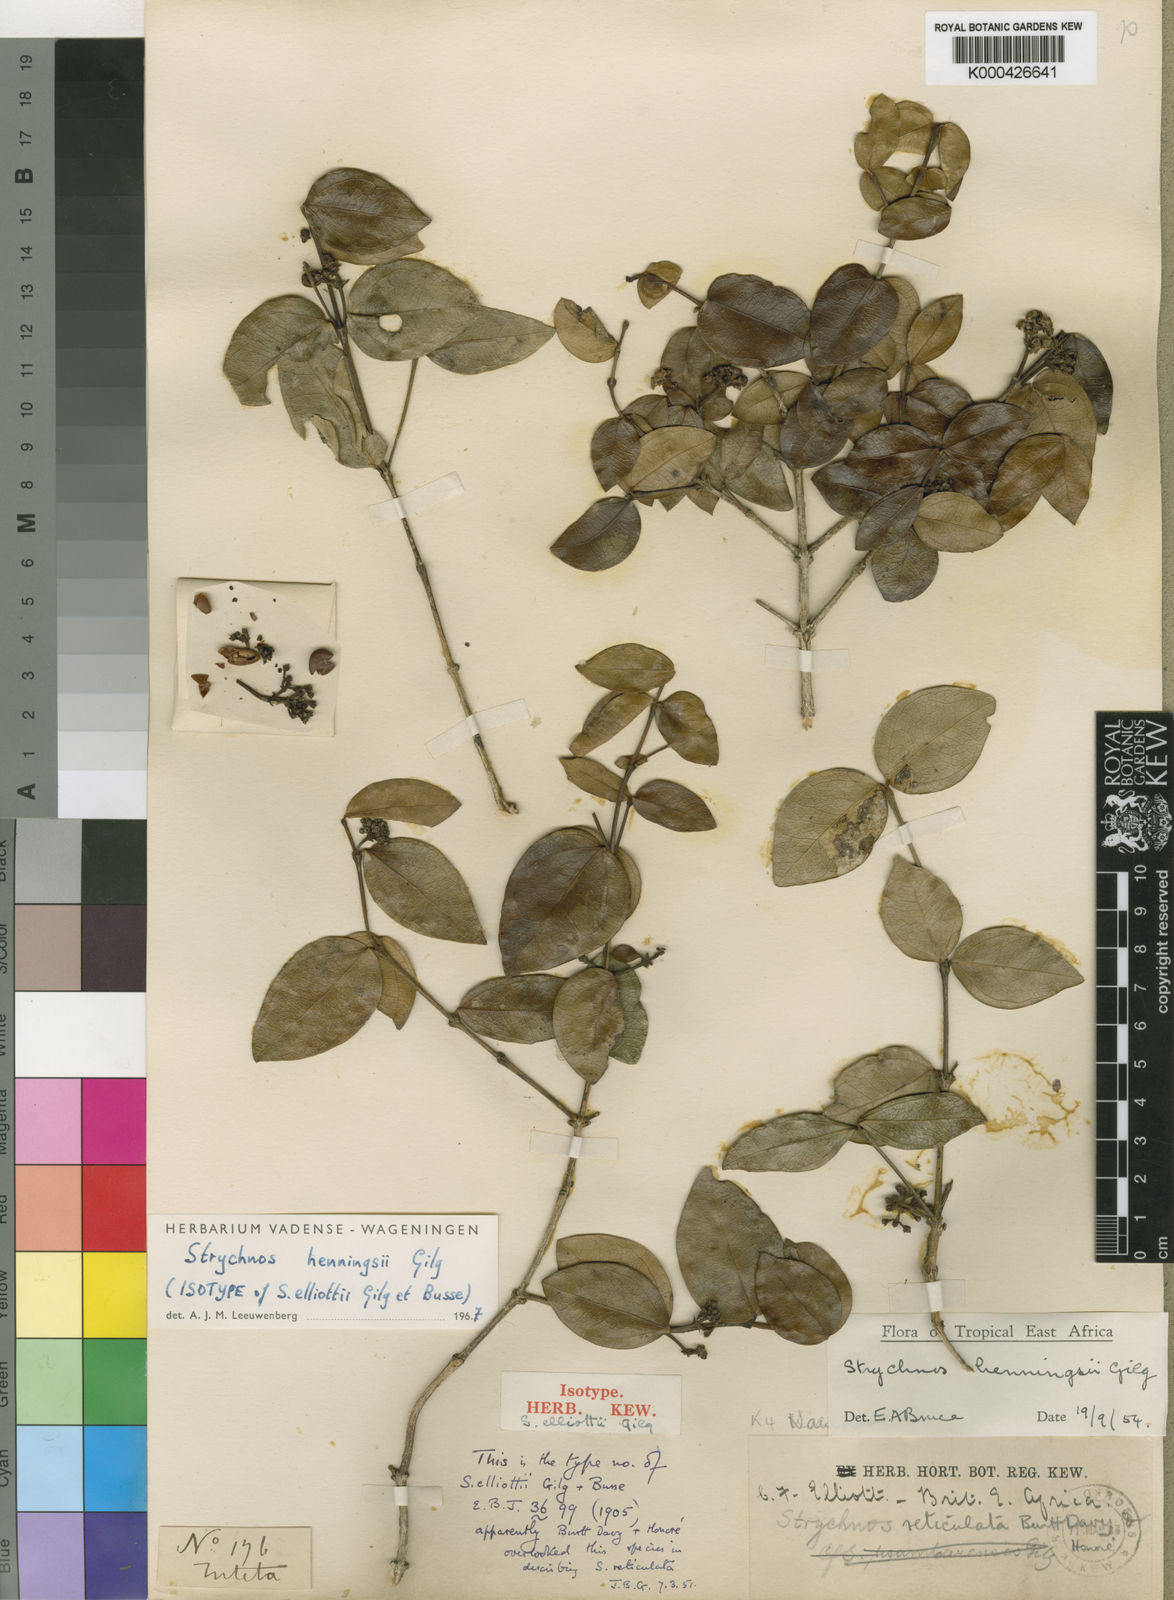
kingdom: Plantae
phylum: Tracheophyta
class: Magnoliopsida
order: Gentianales
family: Loganiaceae
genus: Strychnos
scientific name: Strychnos henningsii
